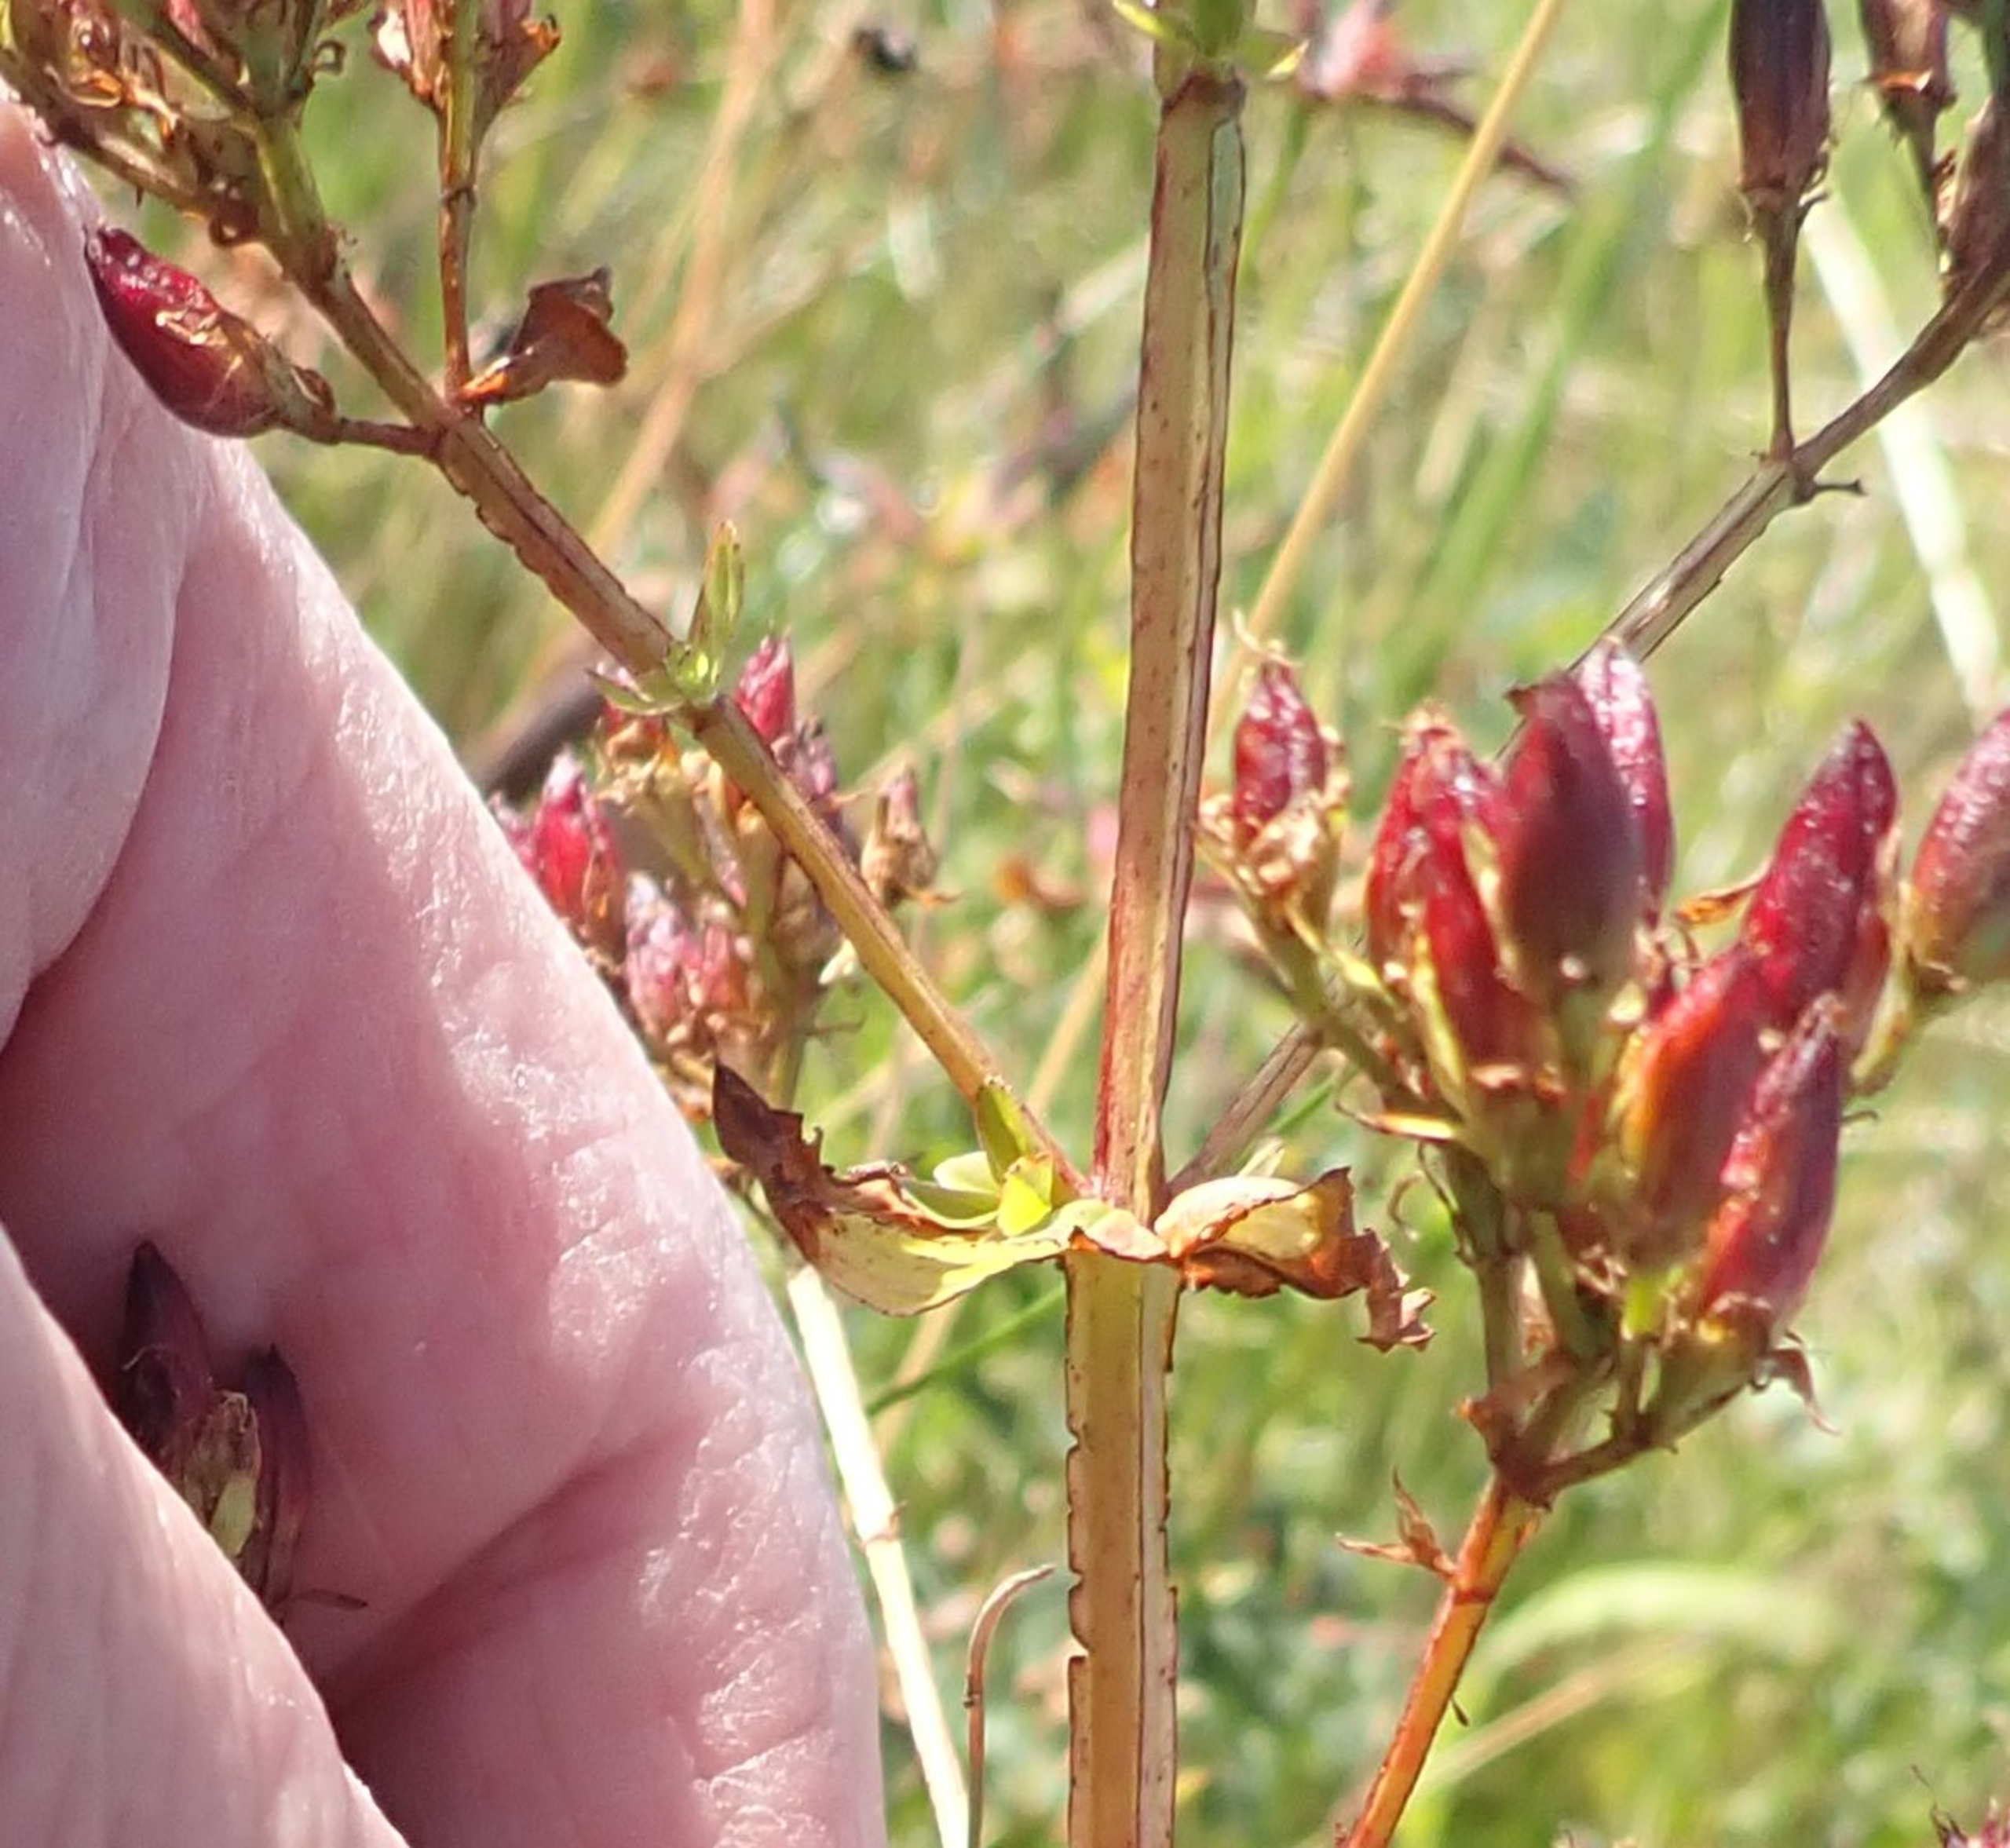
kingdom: Plantae
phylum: Tracheophyta
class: Magnoliopsida
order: Malpighiales
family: Hypericaceae
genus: Hypericum
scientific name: Hypericum tetrapterum
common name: Vinget perikon
